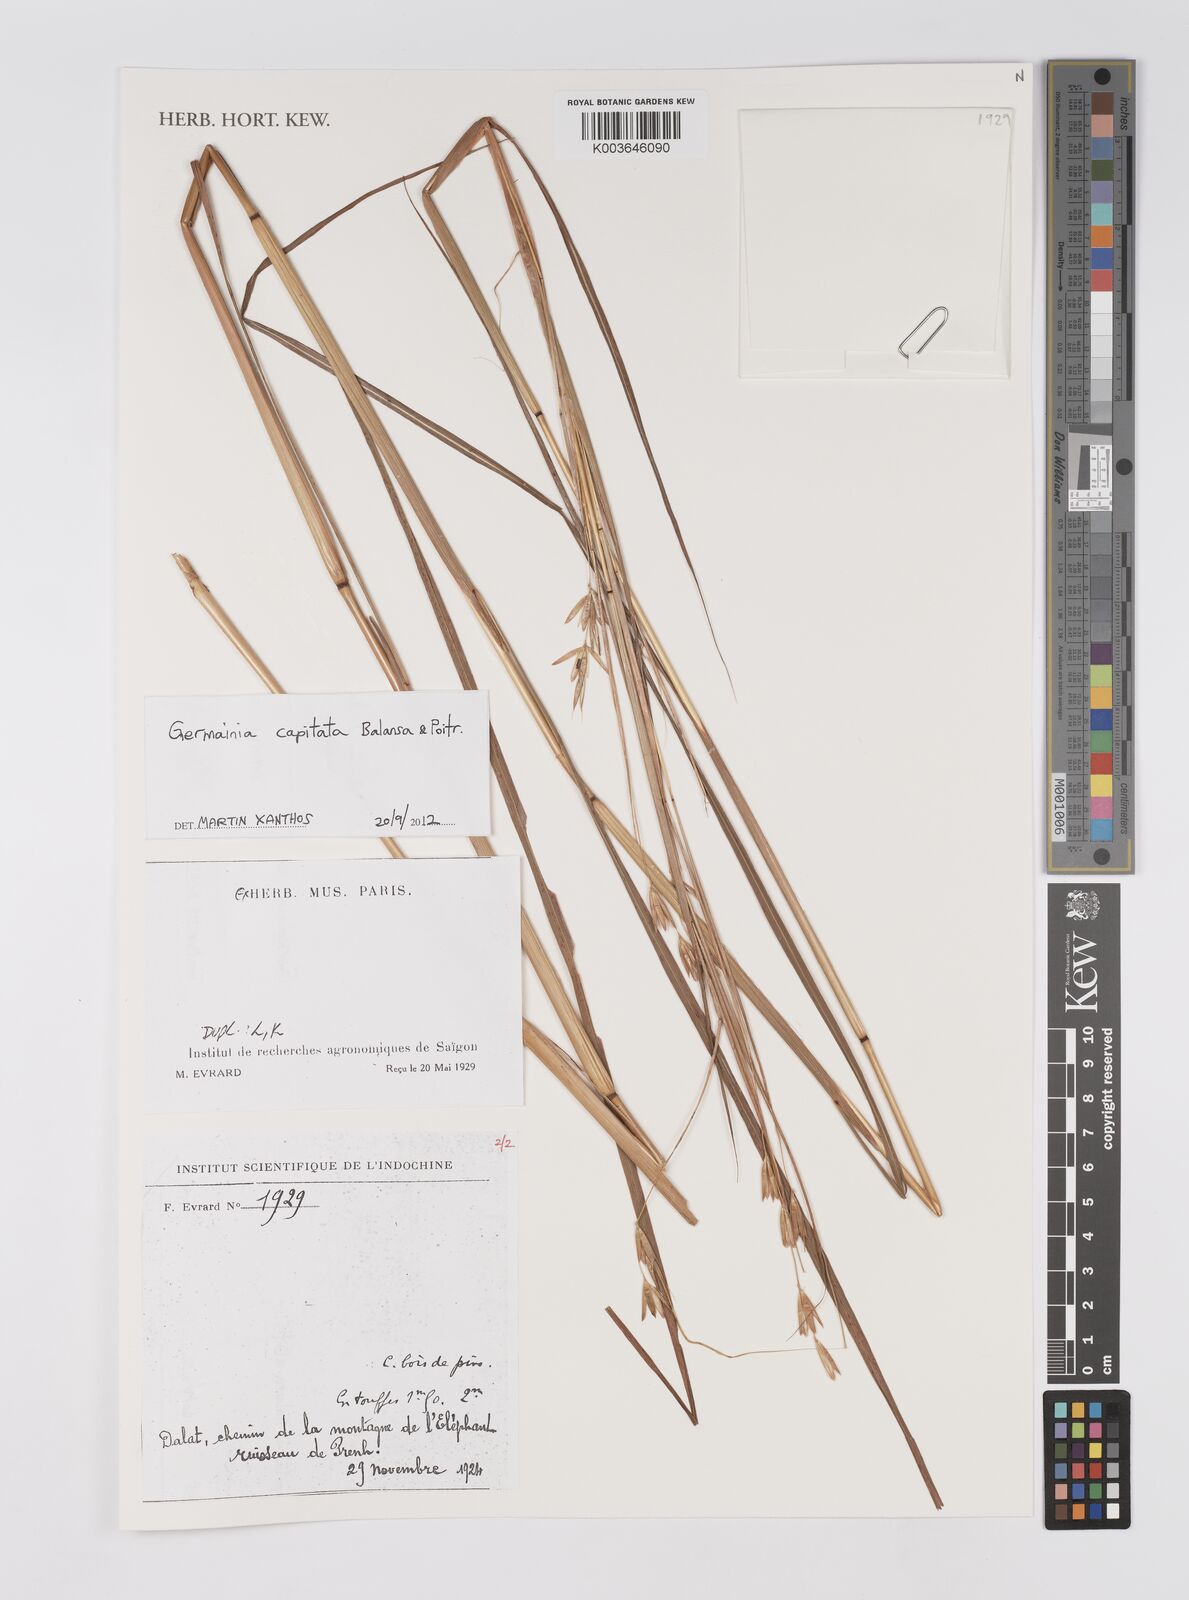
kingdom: Plantae
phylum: Tracheophyta
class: Liliopsida
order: Poales
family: Poaceae
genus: Germainia
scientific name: Germainia capitata
